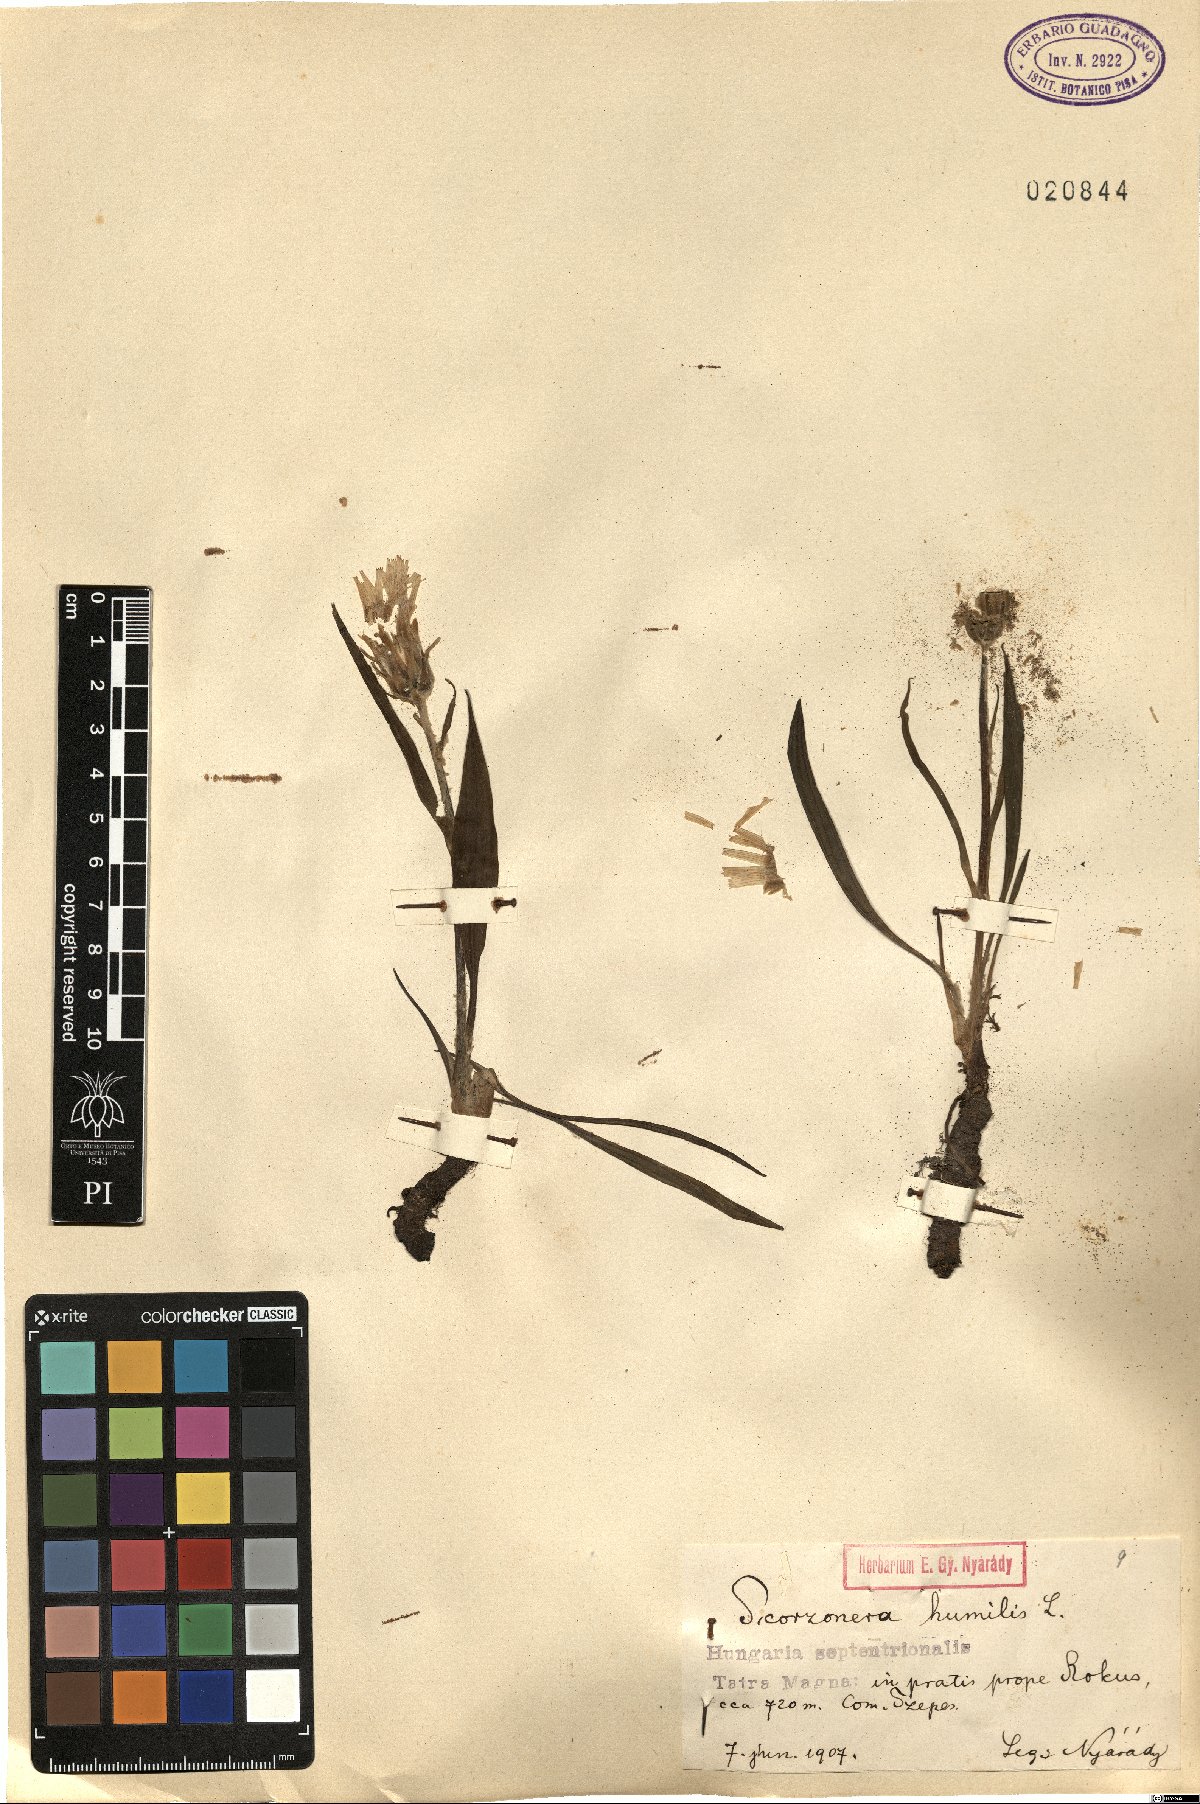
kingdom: Plantae
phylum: Tracheophyta
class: Magnoliopsida
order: Asterales
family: Asteraceae
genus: Scorzonera
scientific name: Scorzonera humilis
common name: Viper's-grass
